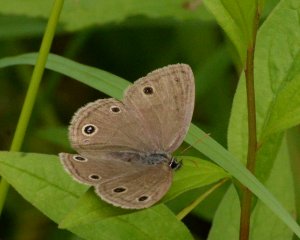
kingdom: Animalia
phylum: Arthropoda
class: Insecta
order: Lepidoptera
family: Nymphalidae
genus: Euptychia
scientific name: Euptychia cymela
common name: Little Wood Satyr
